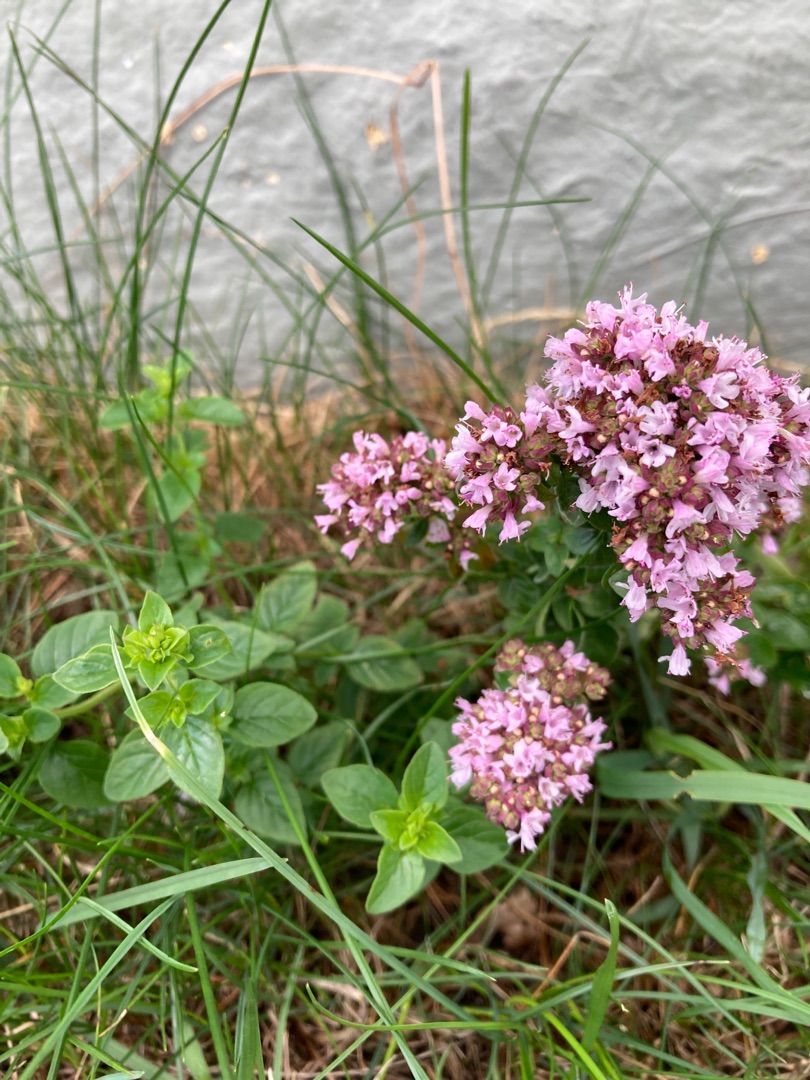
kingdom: Plantae
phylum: Tracheophyta
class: Magnoliopsida
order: Lamiales
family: Lamiaceae
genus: Origanum
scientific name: Origanum vulgare
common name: Merian
